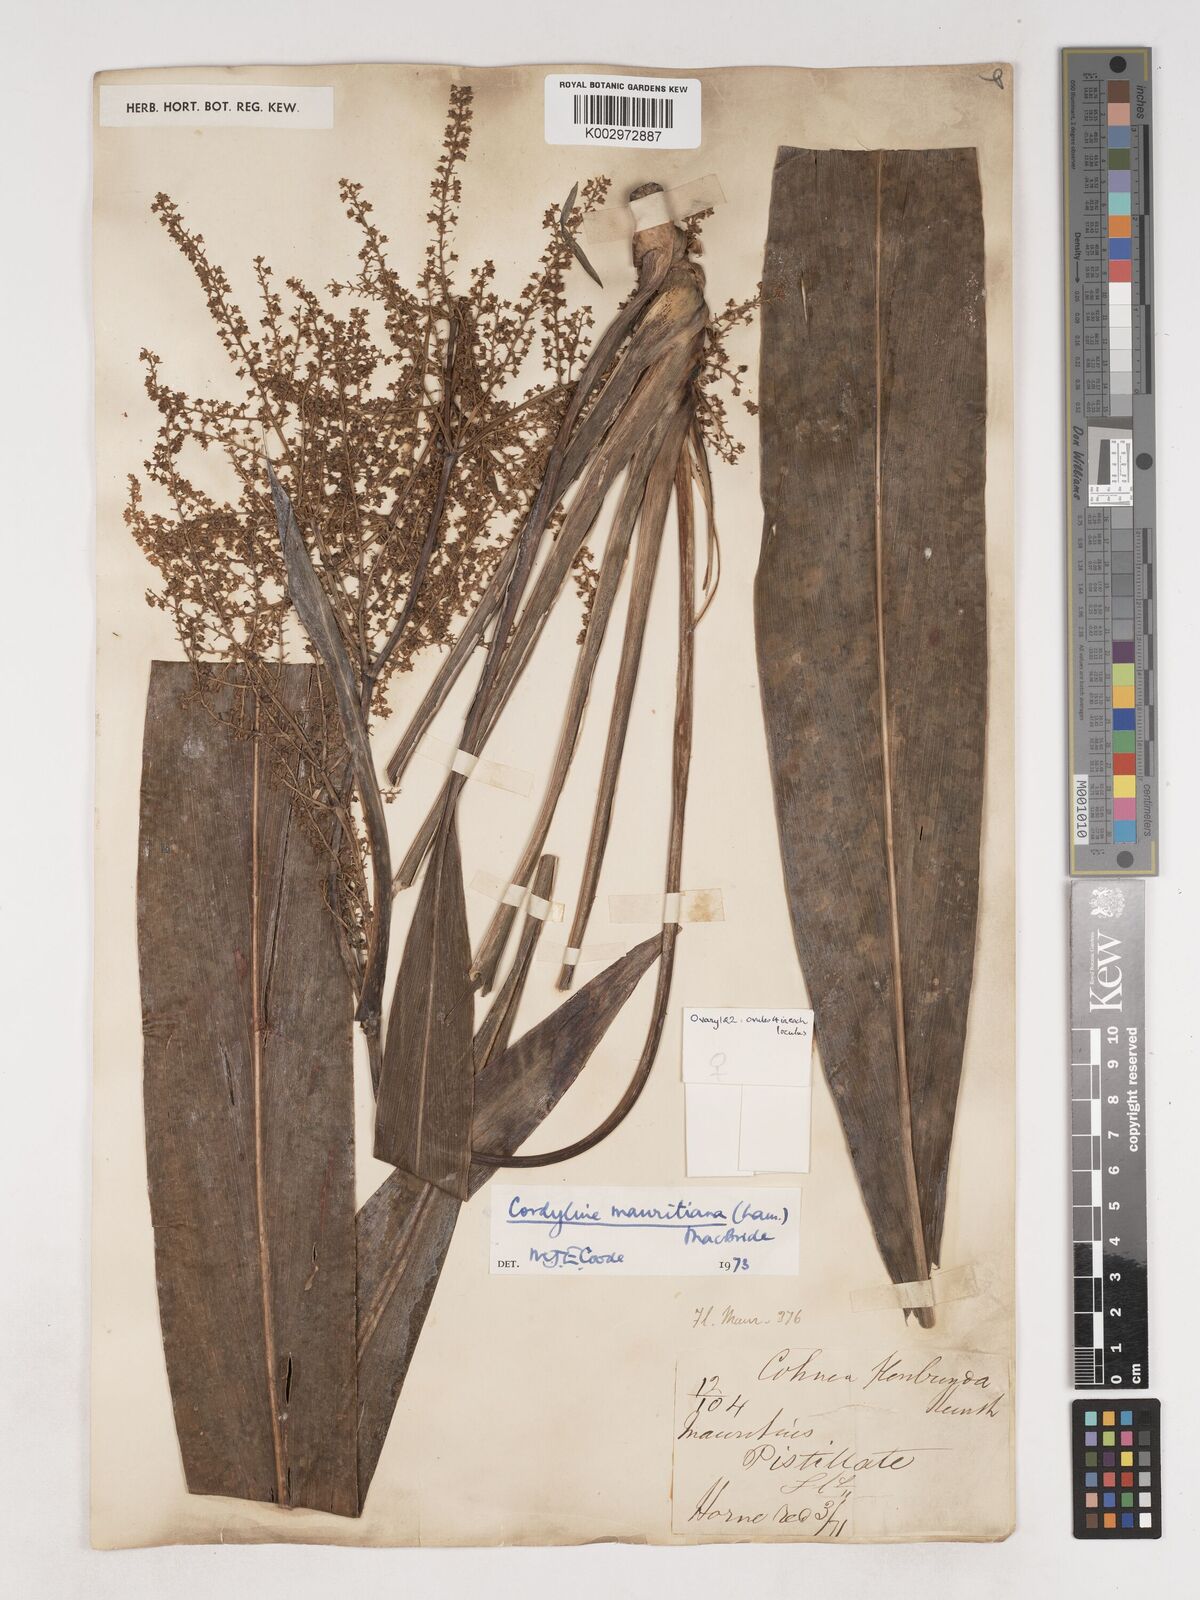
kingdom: Plantae
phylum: Tracheophyta
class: Liliopsida
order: Asparagales
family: Asparagaceae
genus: Cordyline
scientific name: Cordyline mauritiana
